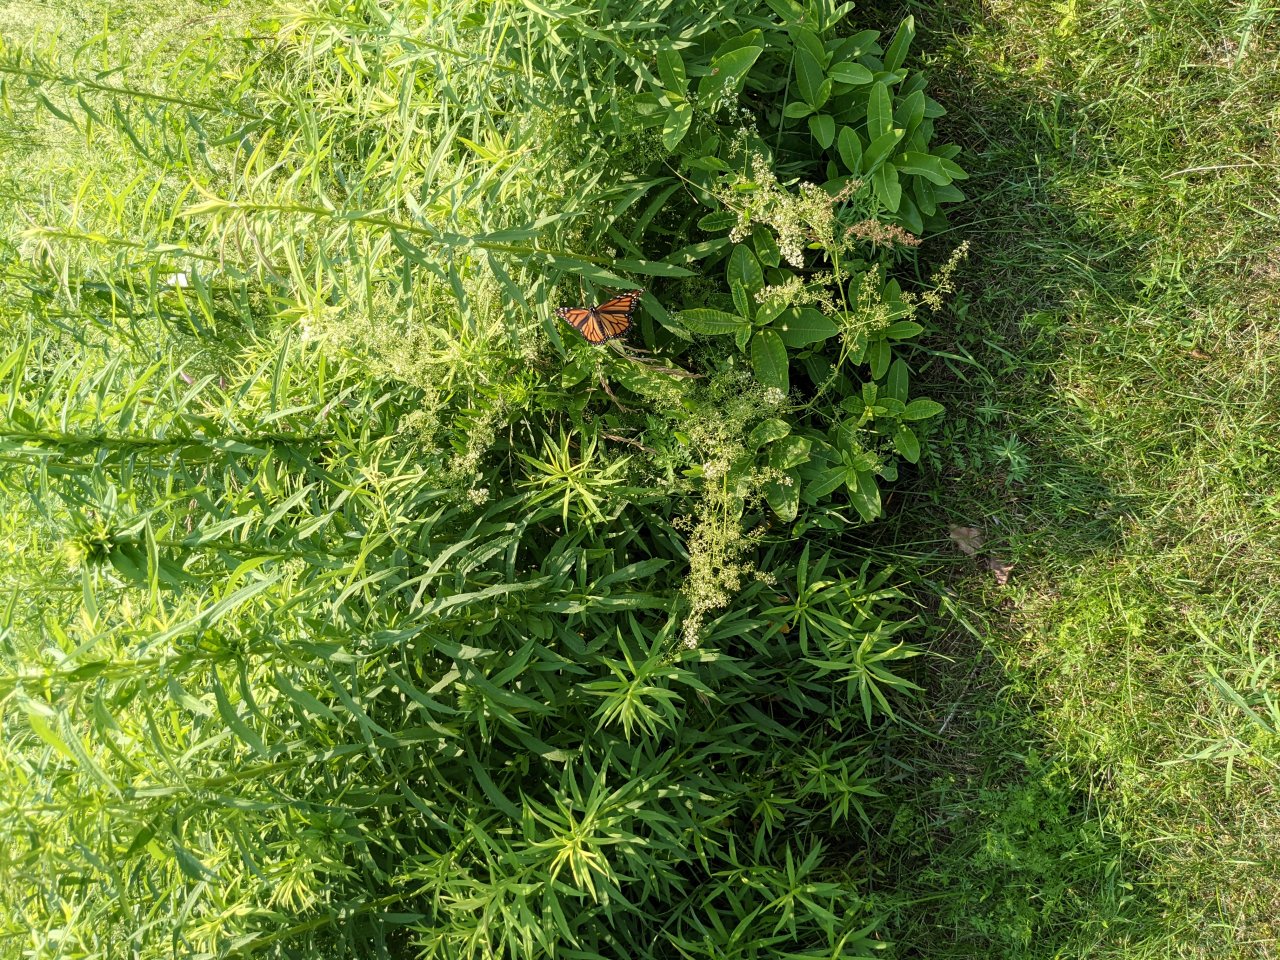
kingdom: Animalia
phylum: Arthropoda
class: Insecta
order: Lepidoptera
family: Nymphalidae
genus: Danaus
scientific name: Danaus plexippus
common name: Monarch
